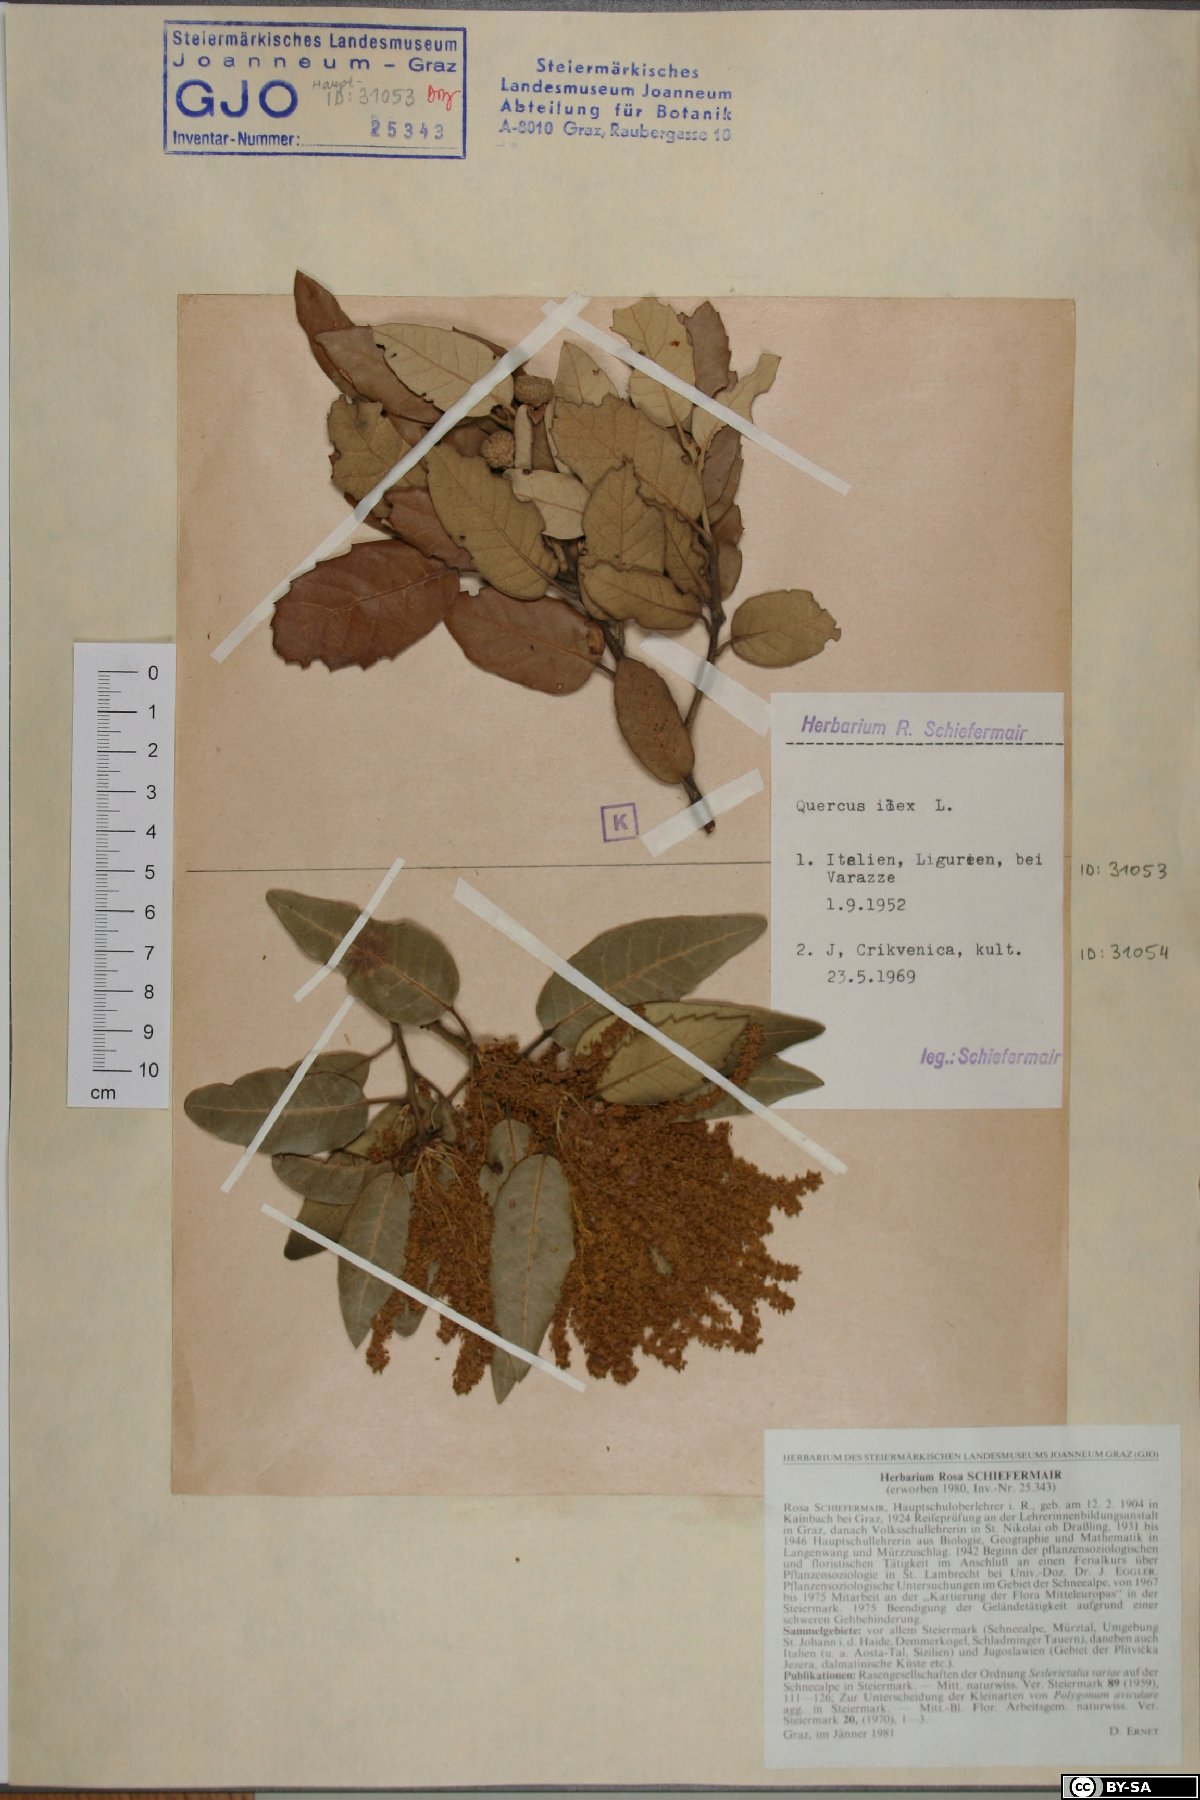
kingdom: Plantae
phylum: Tracheophyta
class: Magnoliopsida
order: Fagales
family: Fagaceae
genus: Quercus
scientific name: Quercus ilex
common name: Evergreen oak
